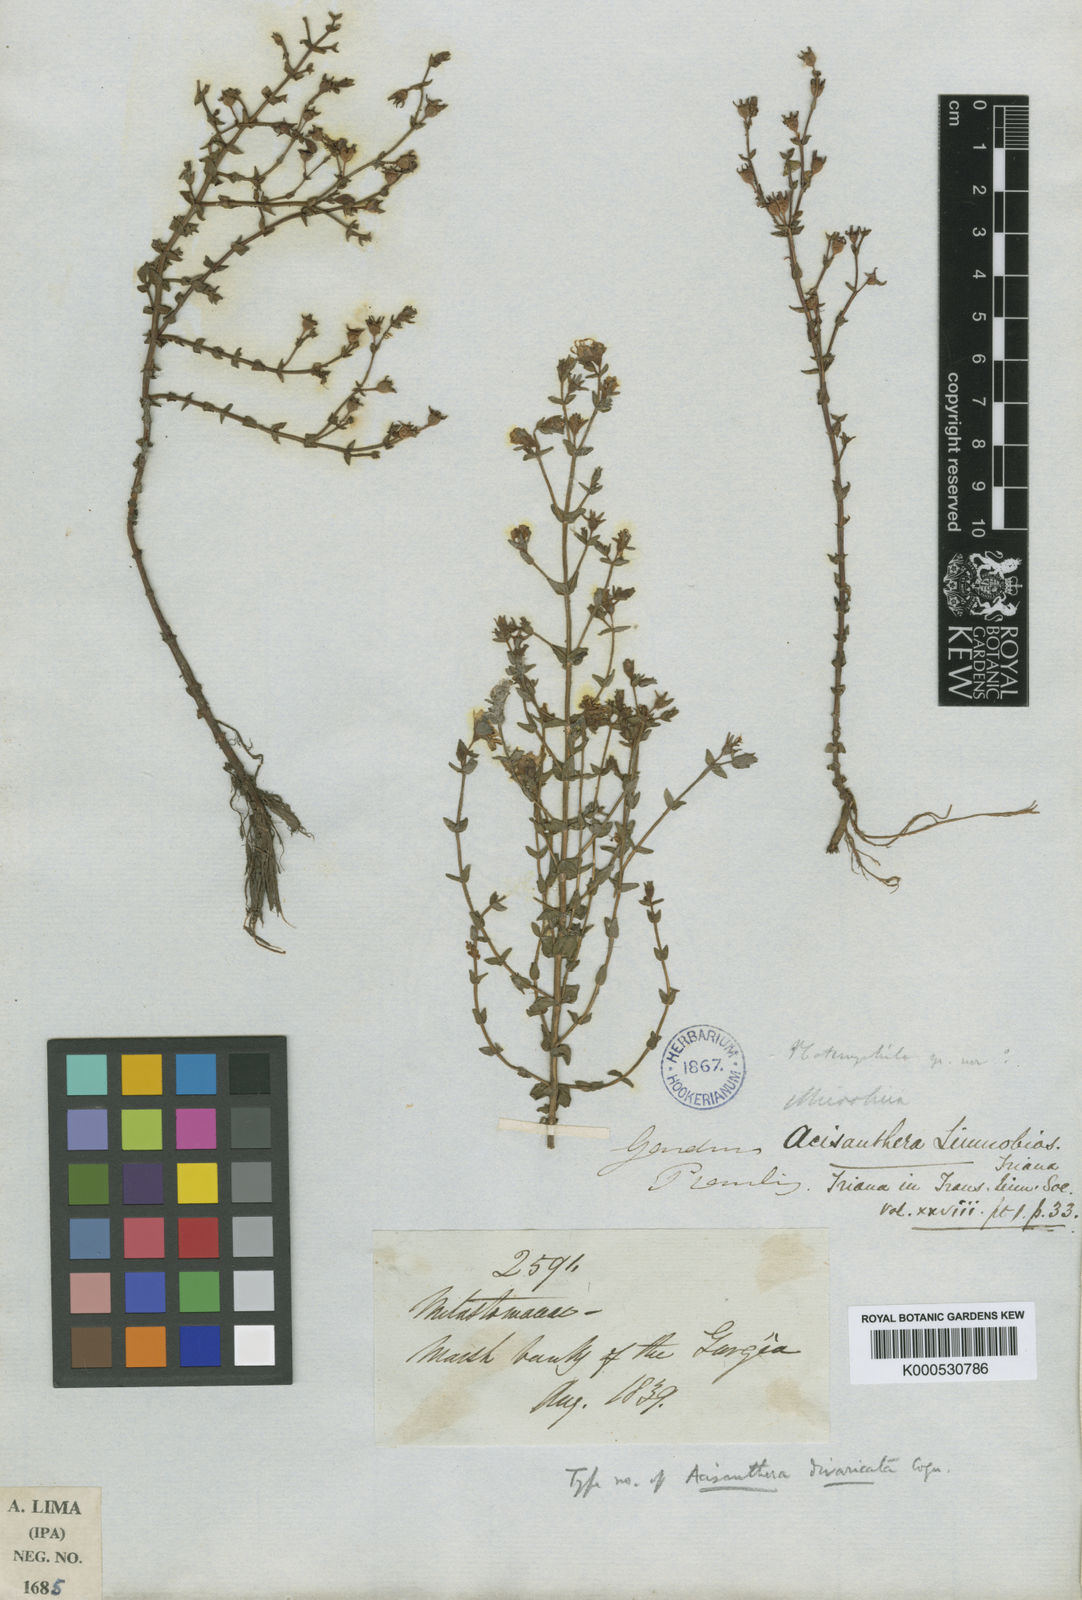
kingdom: Plantae
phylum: Tracheophyta
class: Magnoliopsida
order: Myrtales
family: Melastomataceae
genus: Acisanthera
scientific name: Acisanthera divaricata
